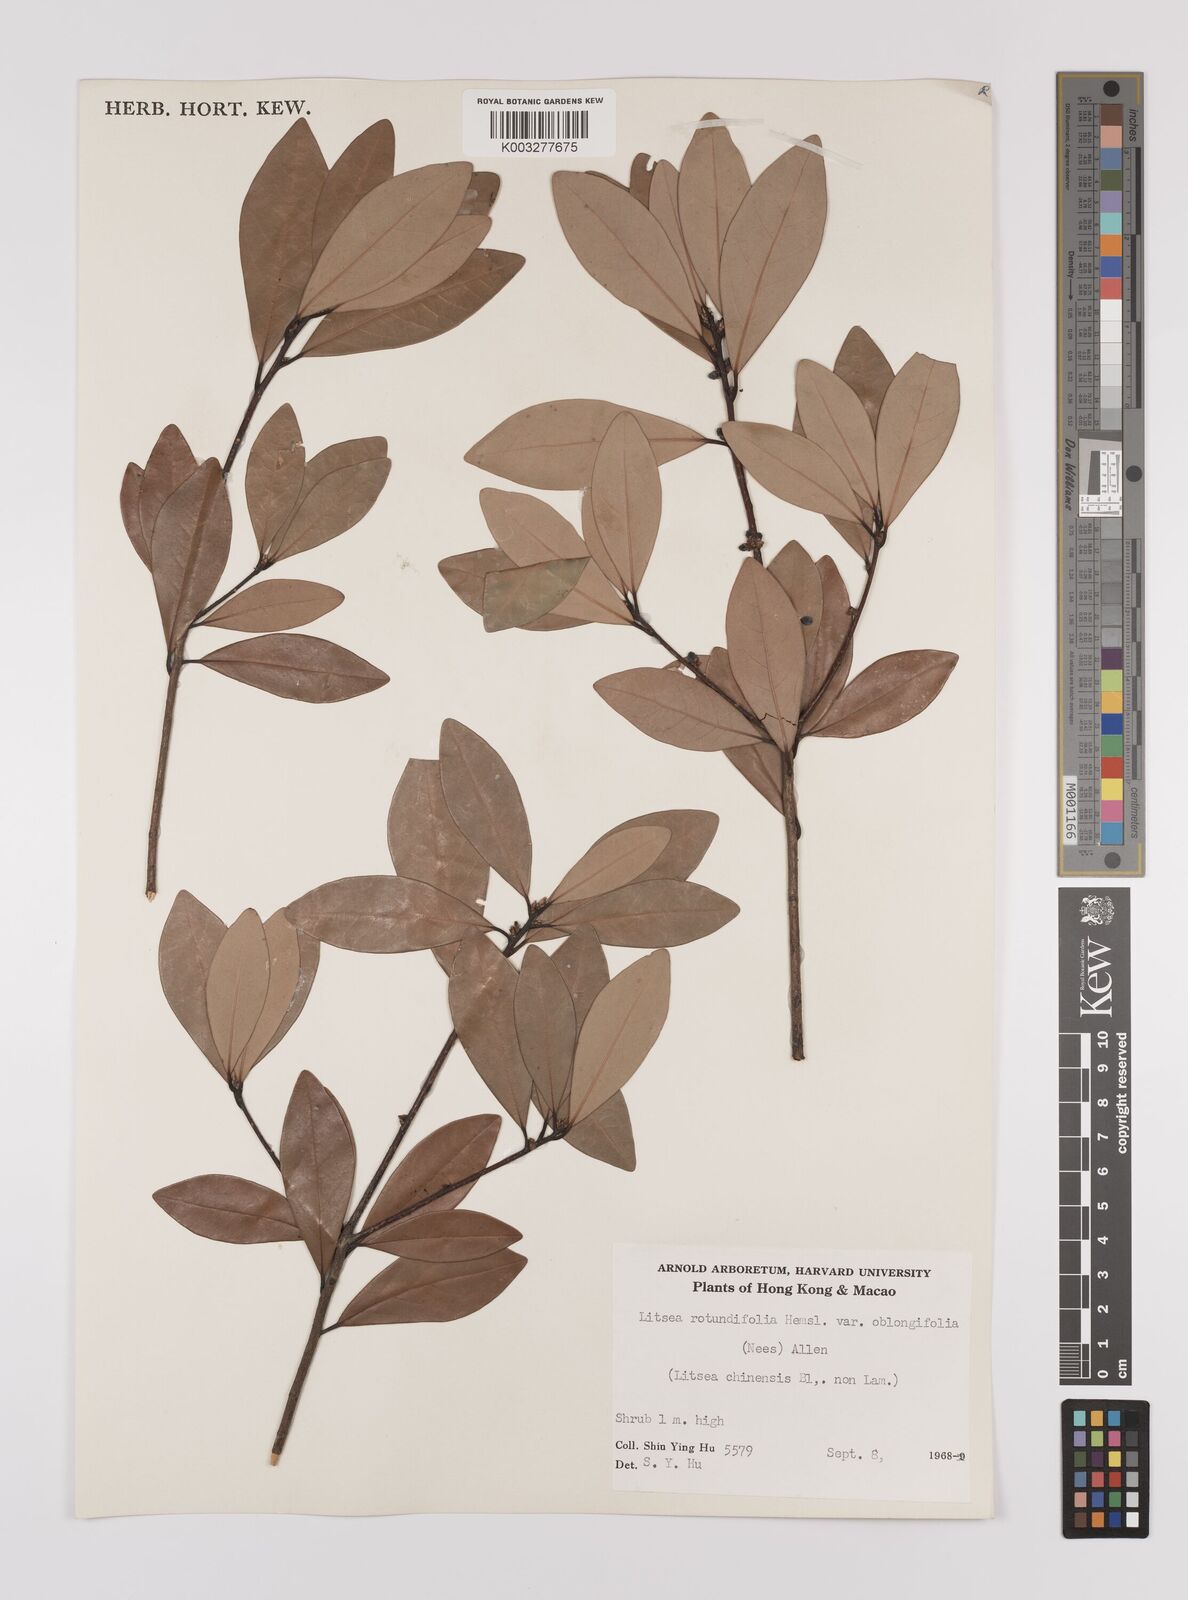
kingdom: Plantae
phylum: Tracheophyta
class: Magnoliopsida
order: Laurales
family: Lauraceae
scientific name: Lauraceae
